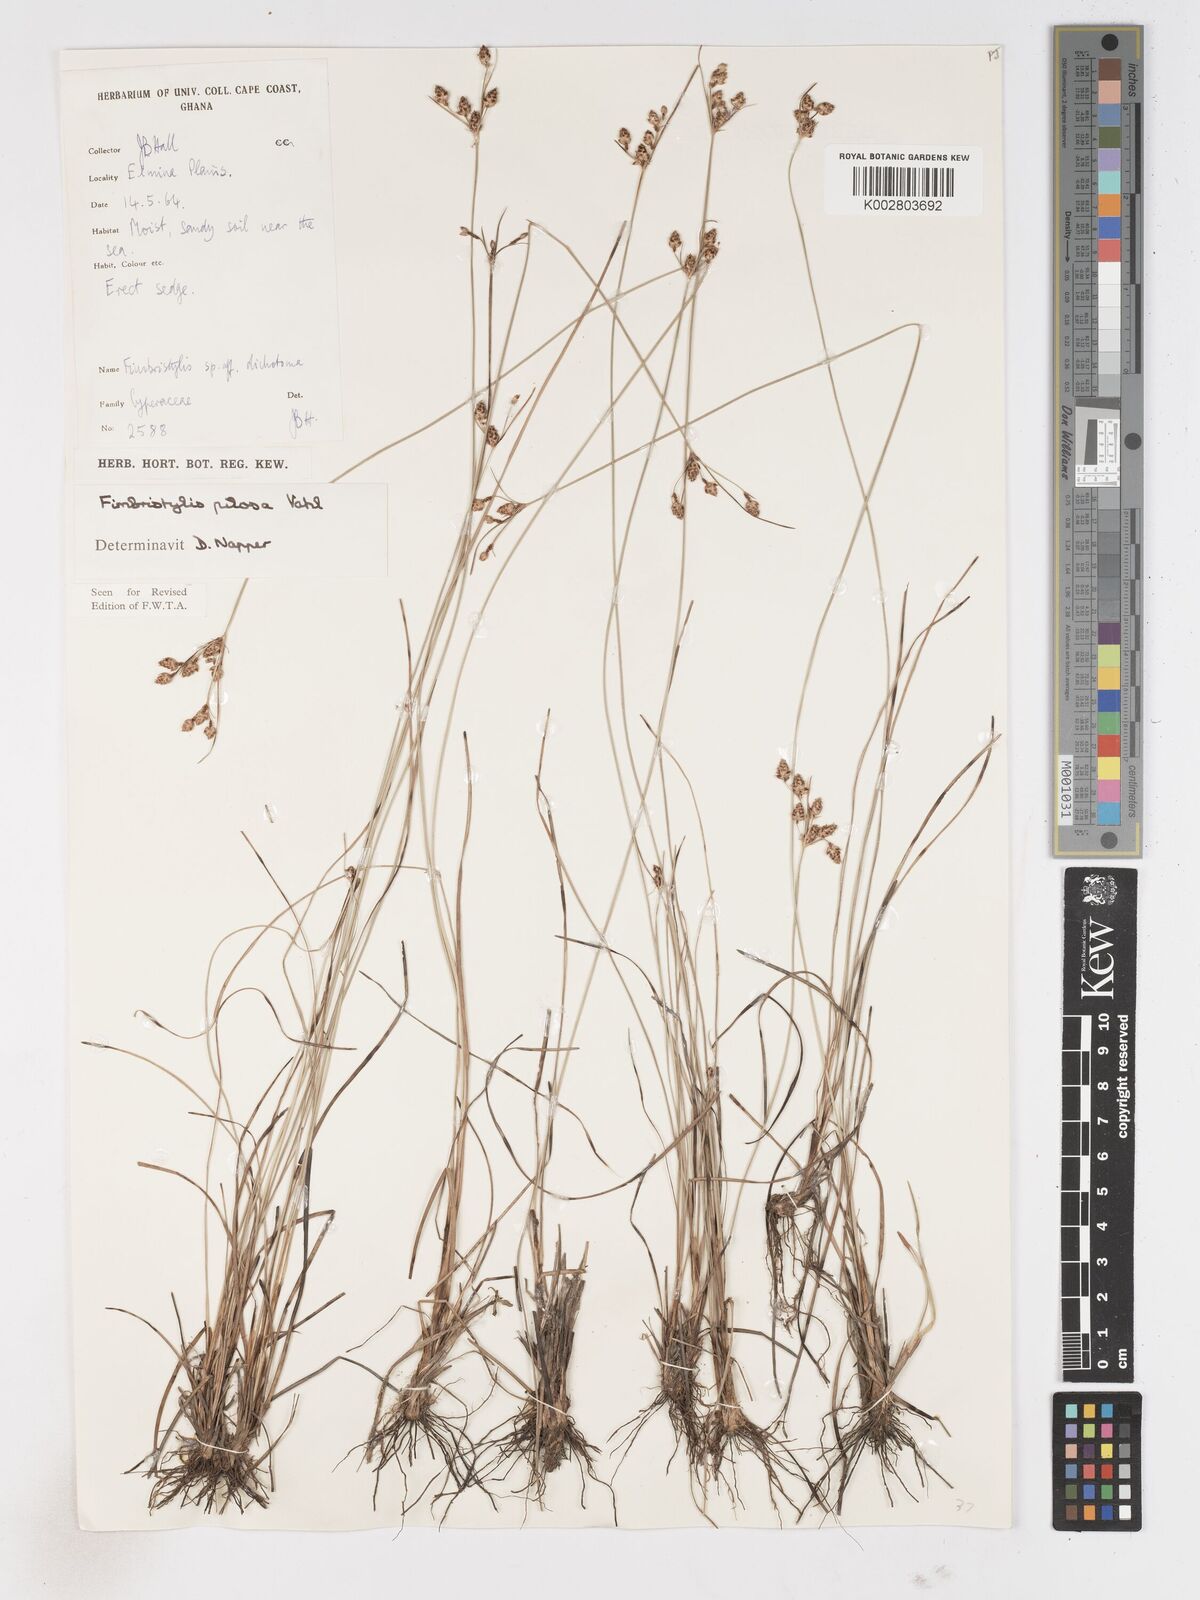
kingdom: Plantae
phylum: Tracheophyta
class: Liliopsida
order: Poales
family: Cyperaceae
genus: Fimbristylis
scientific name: Fimbristylis pilosa
